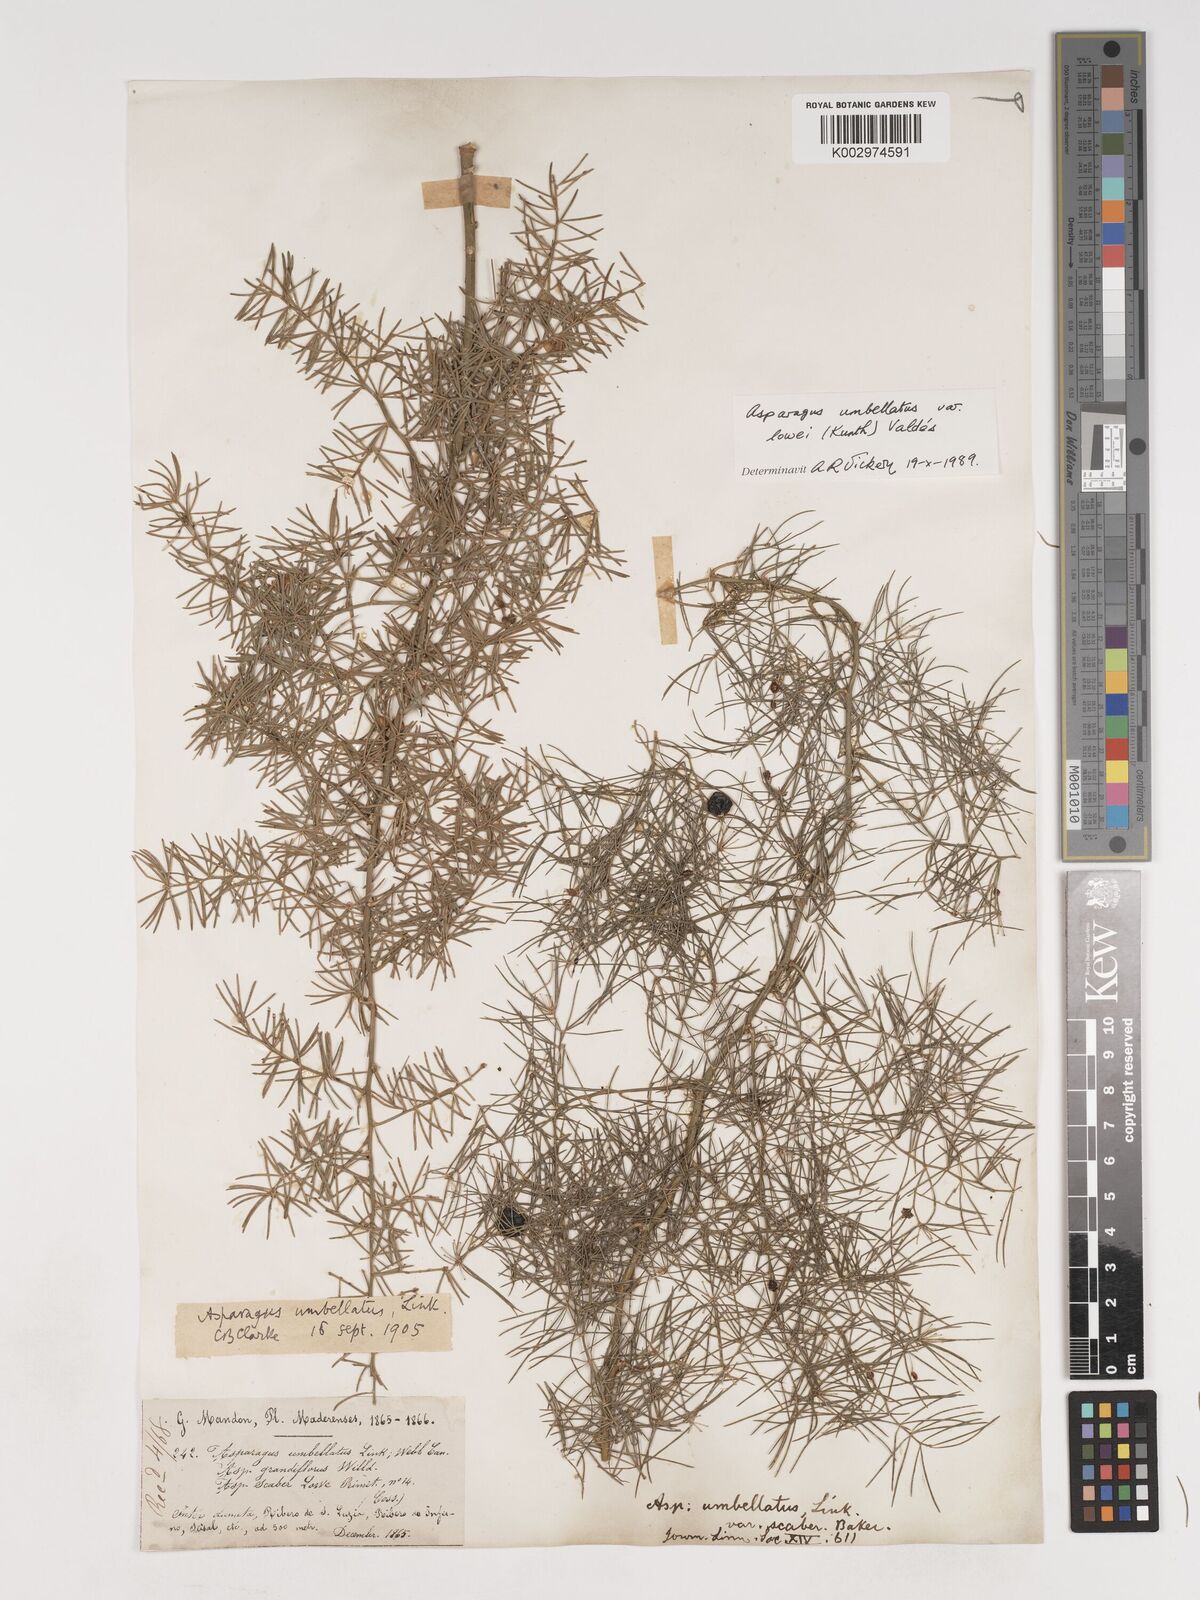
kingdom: Plantae
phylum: Tracheophyta
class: Liliopsida
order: Asparagales
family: Asparagaceae
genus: Asparagus
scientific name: Asparagus umbellatus
